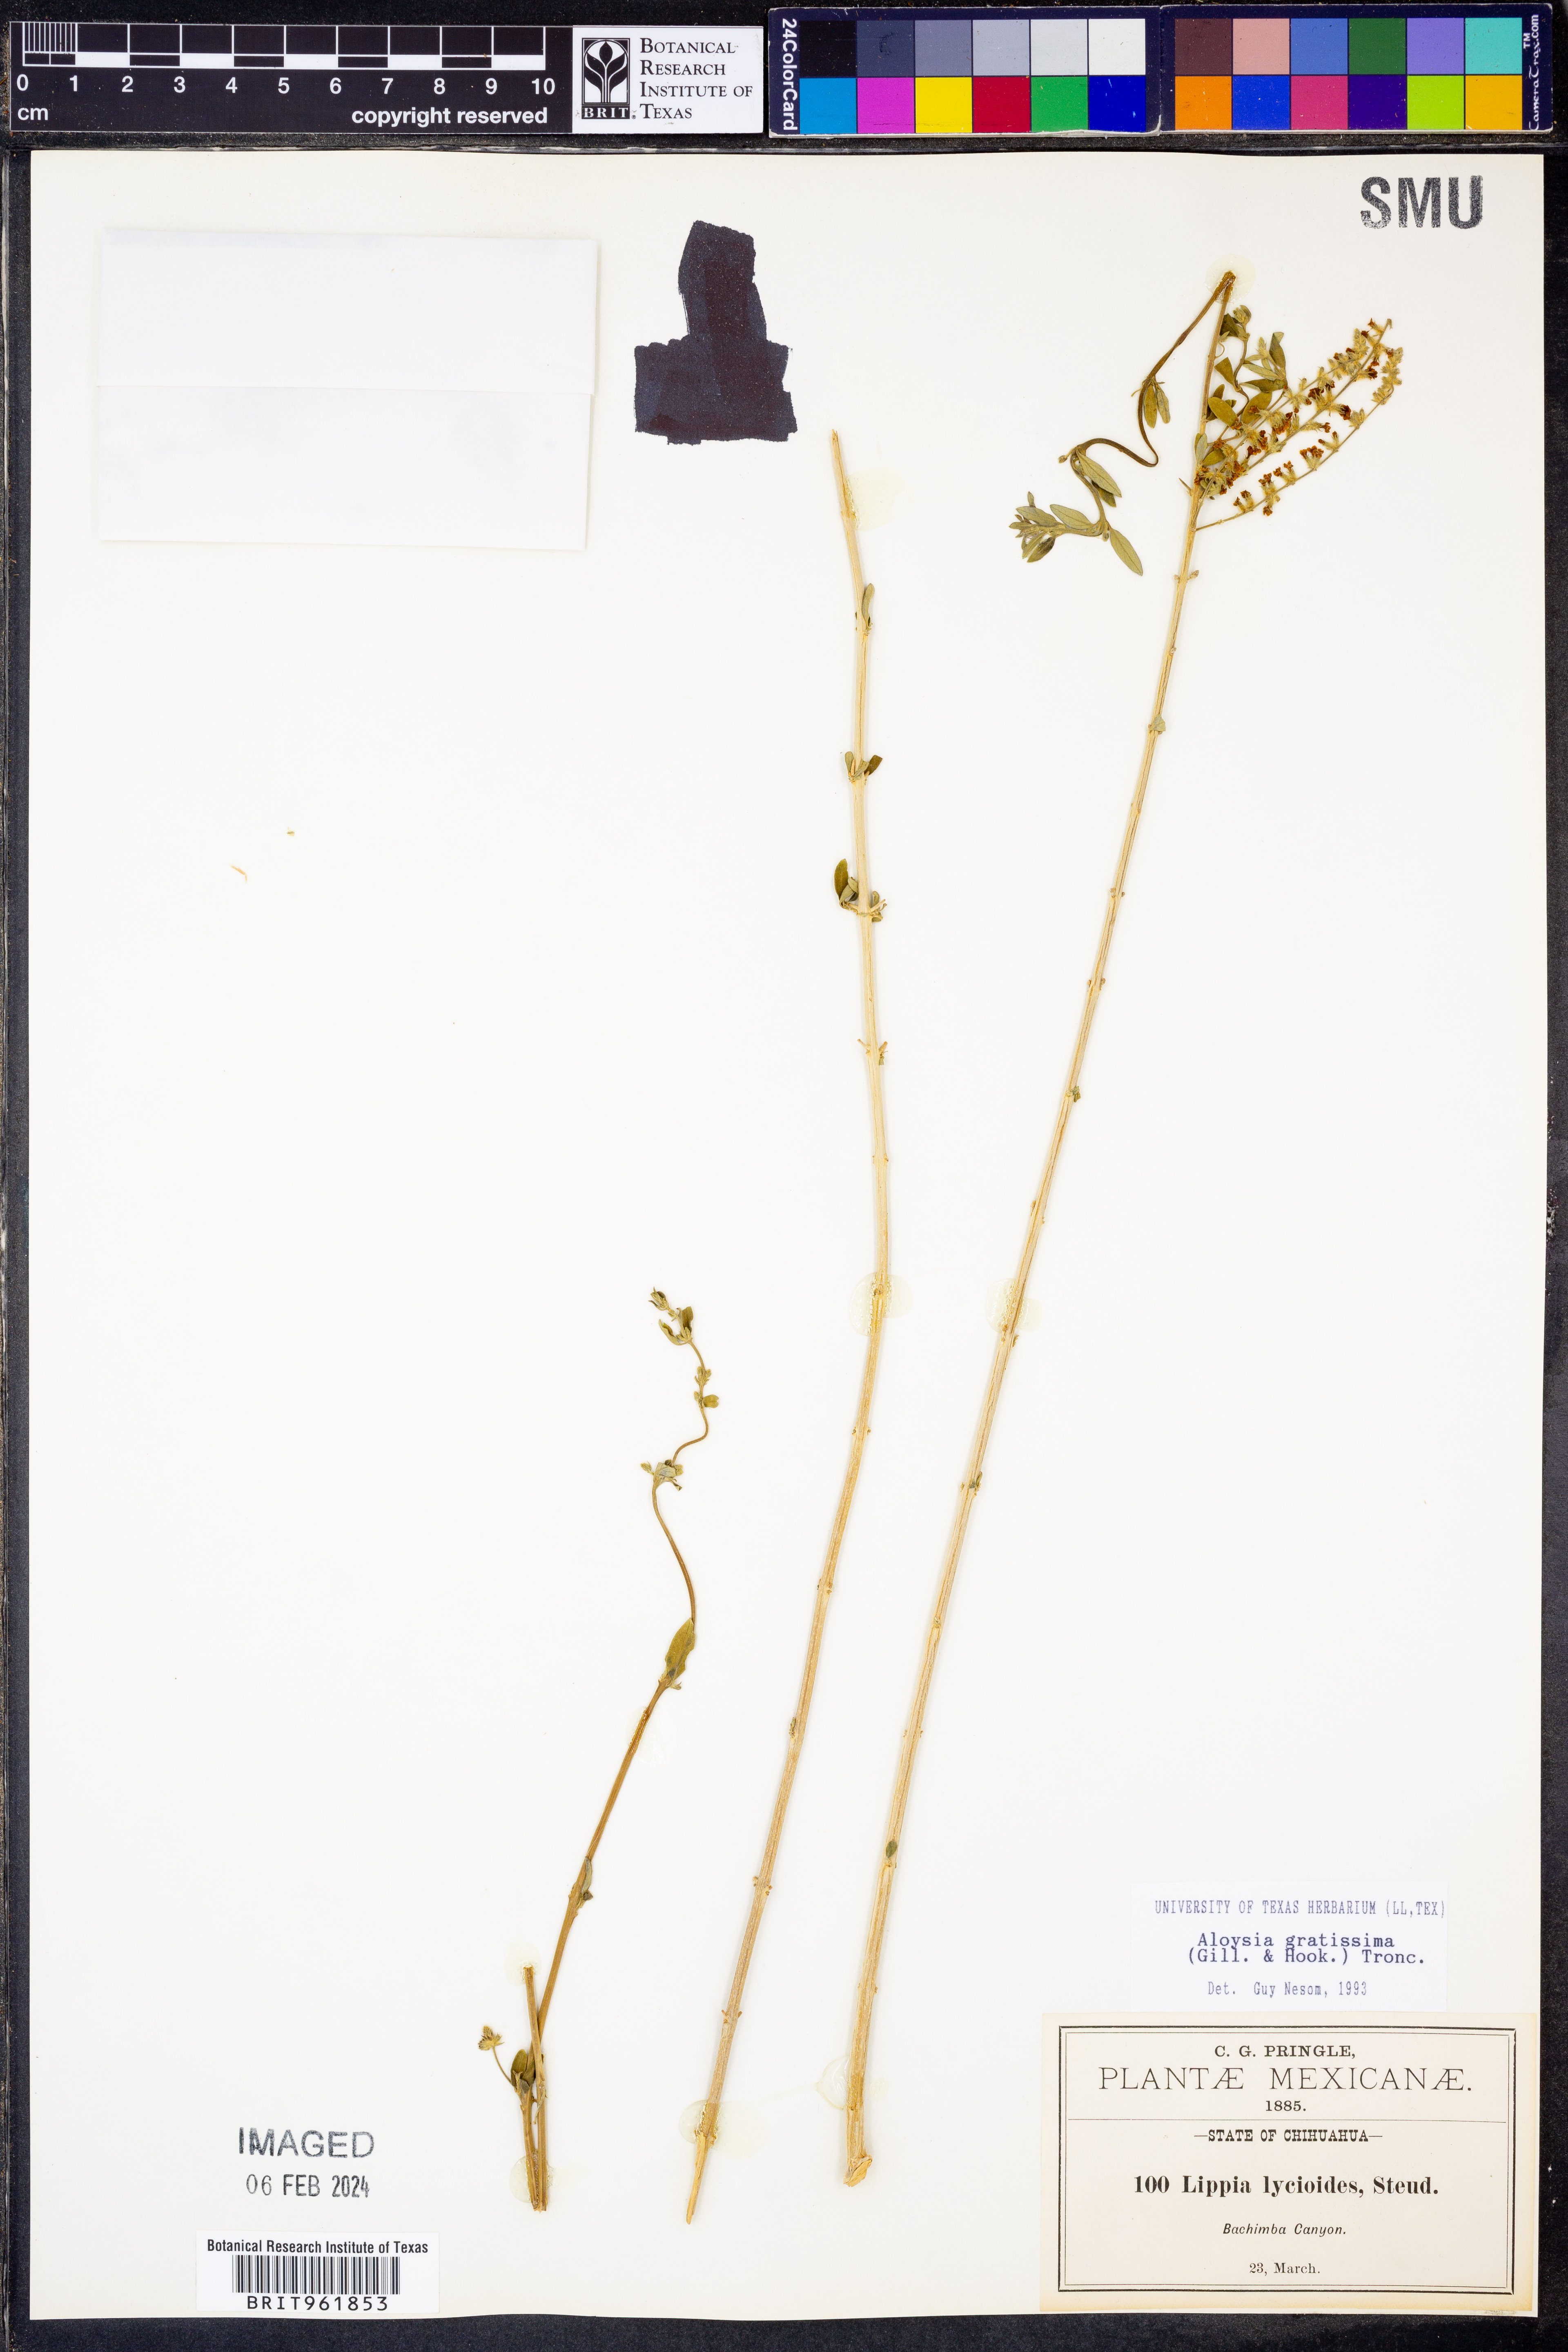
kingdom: Plantae
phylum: Tracheophyta
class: Magnoliopsida
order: Lamiales
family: Verbenaceae
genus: Aloysia
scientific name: Aloysia gratissima
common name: Common bee-brush
